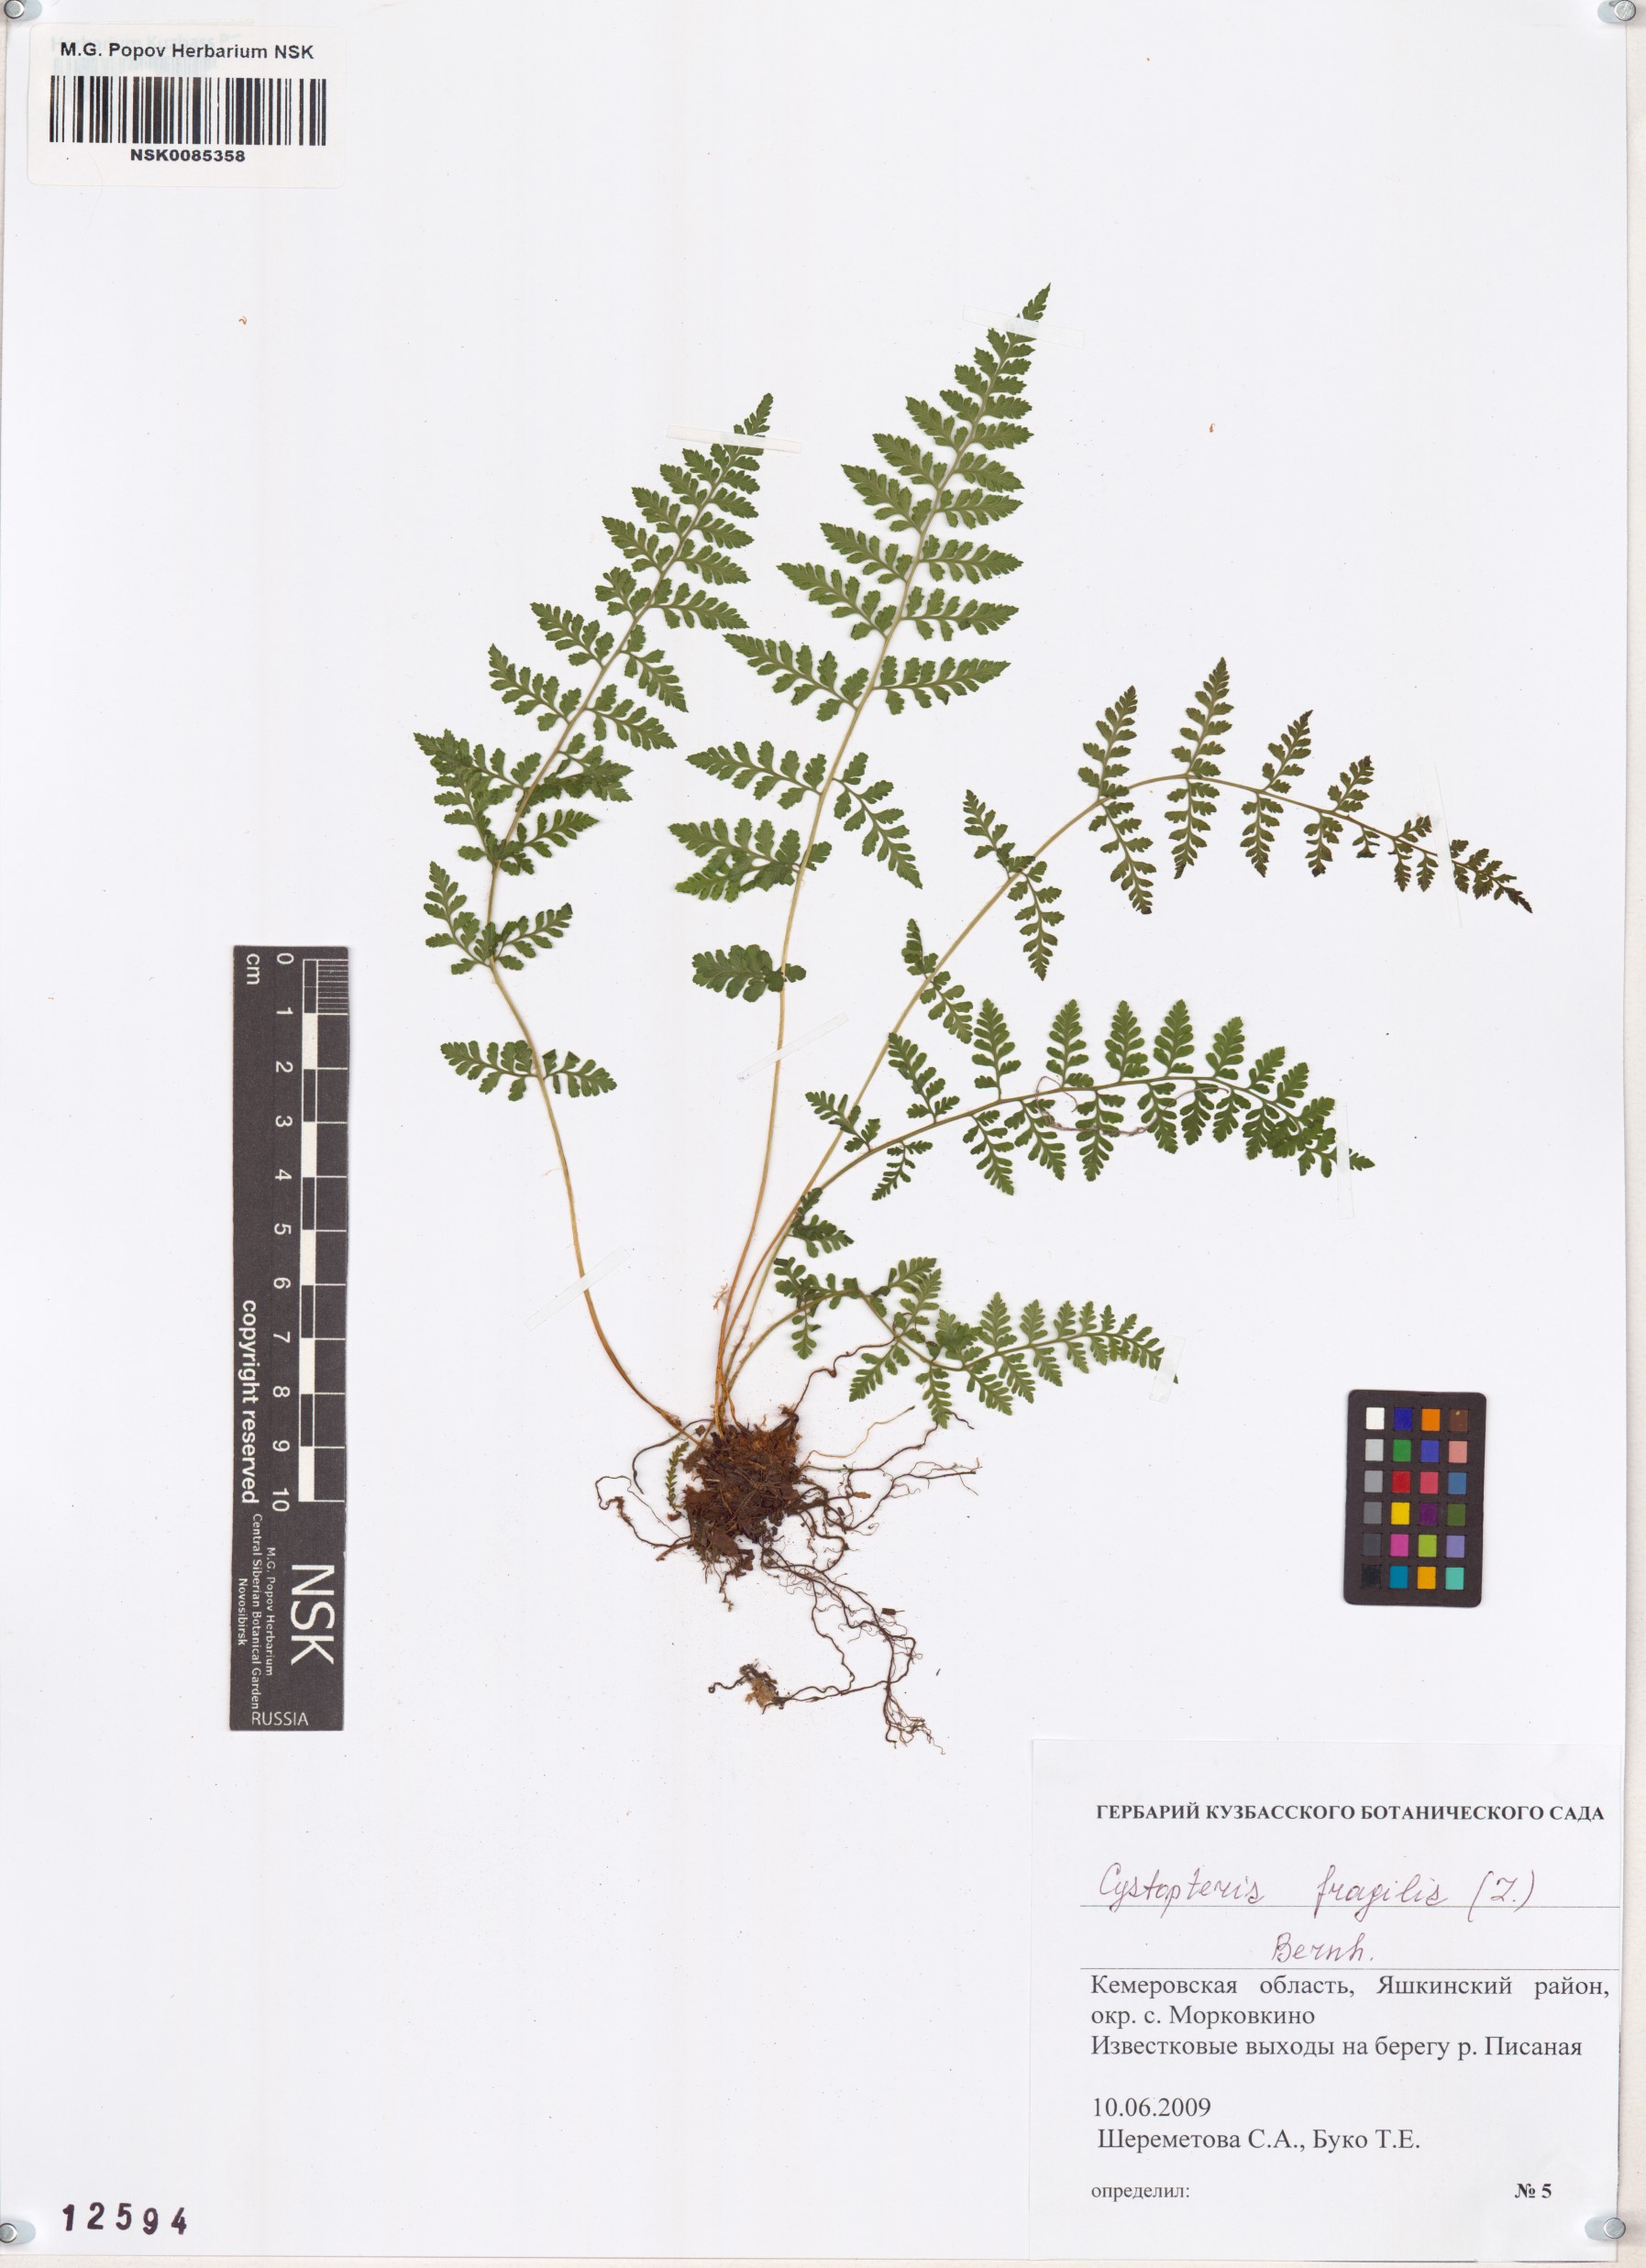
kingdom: Plantae
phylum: Tracheophyta
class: Polypodiopsida
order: Polypodiales
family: Cystopteridaceae
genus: Cystopteris
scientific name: Cystopteris fragilis
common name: Brittle bladder fern
